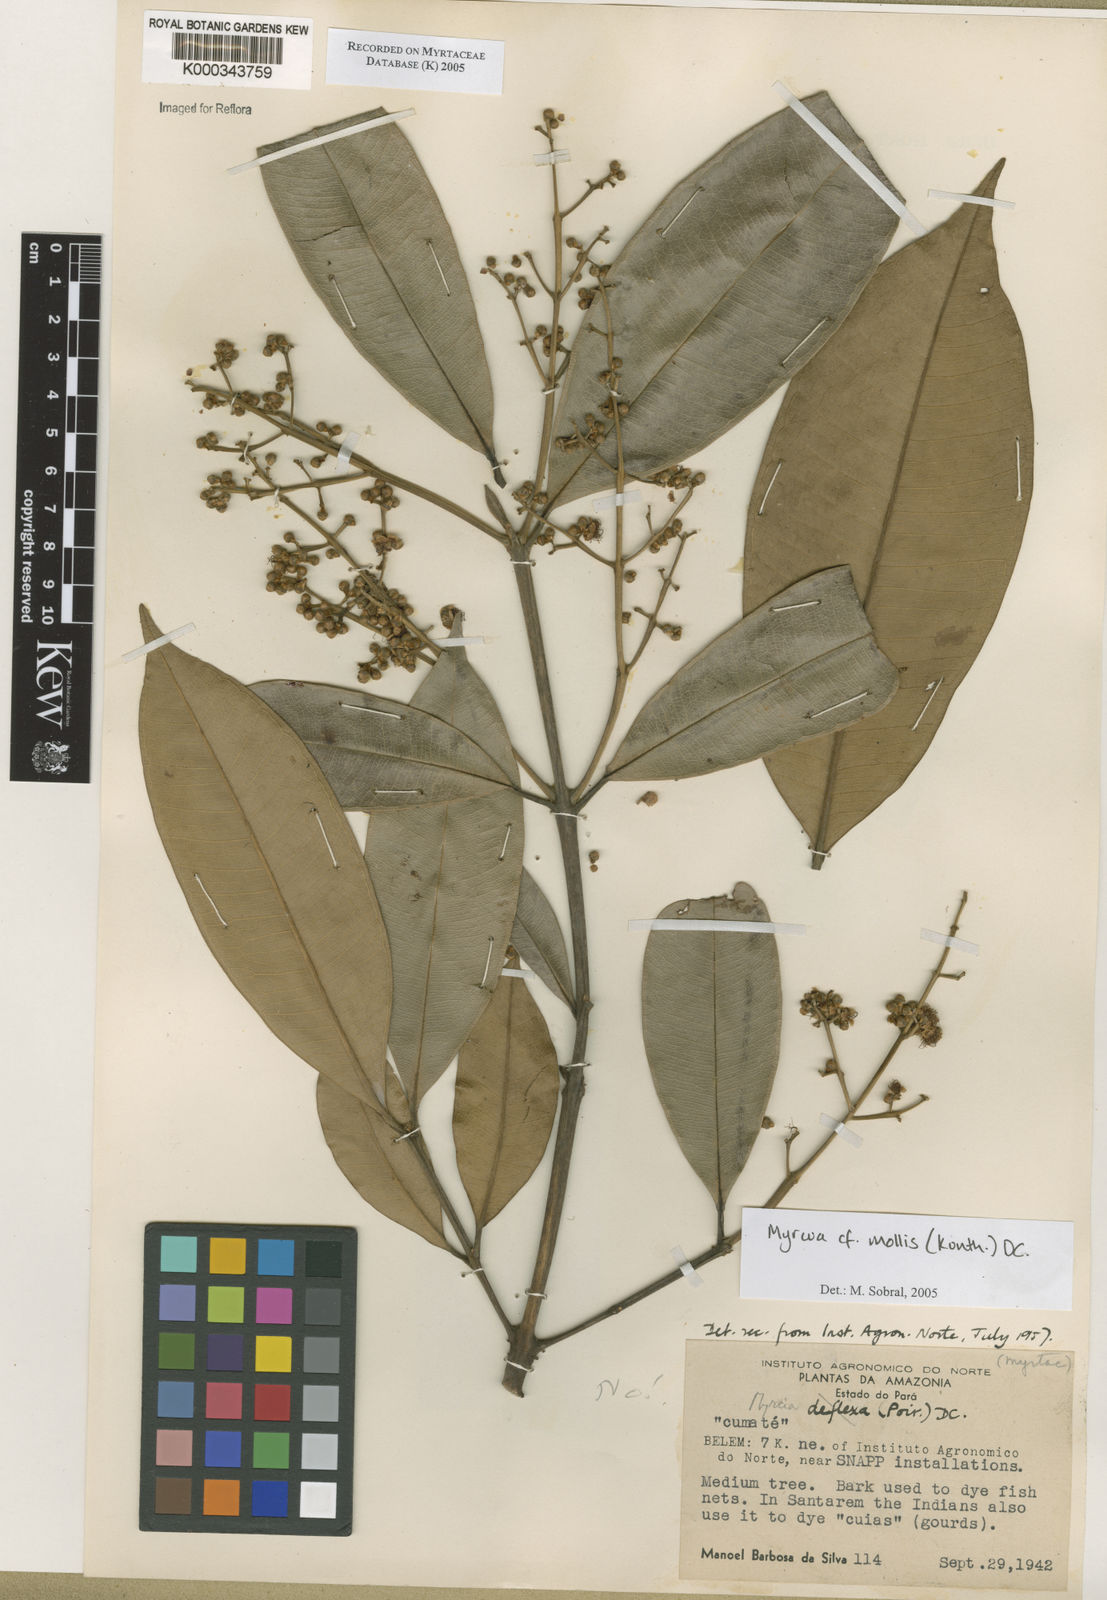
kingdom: Plantae
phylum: Tracheophyta
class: Magnoliopsida
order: Myrtales
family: Myrtaceae
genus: Myrcia
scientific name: Myrcia mollis
